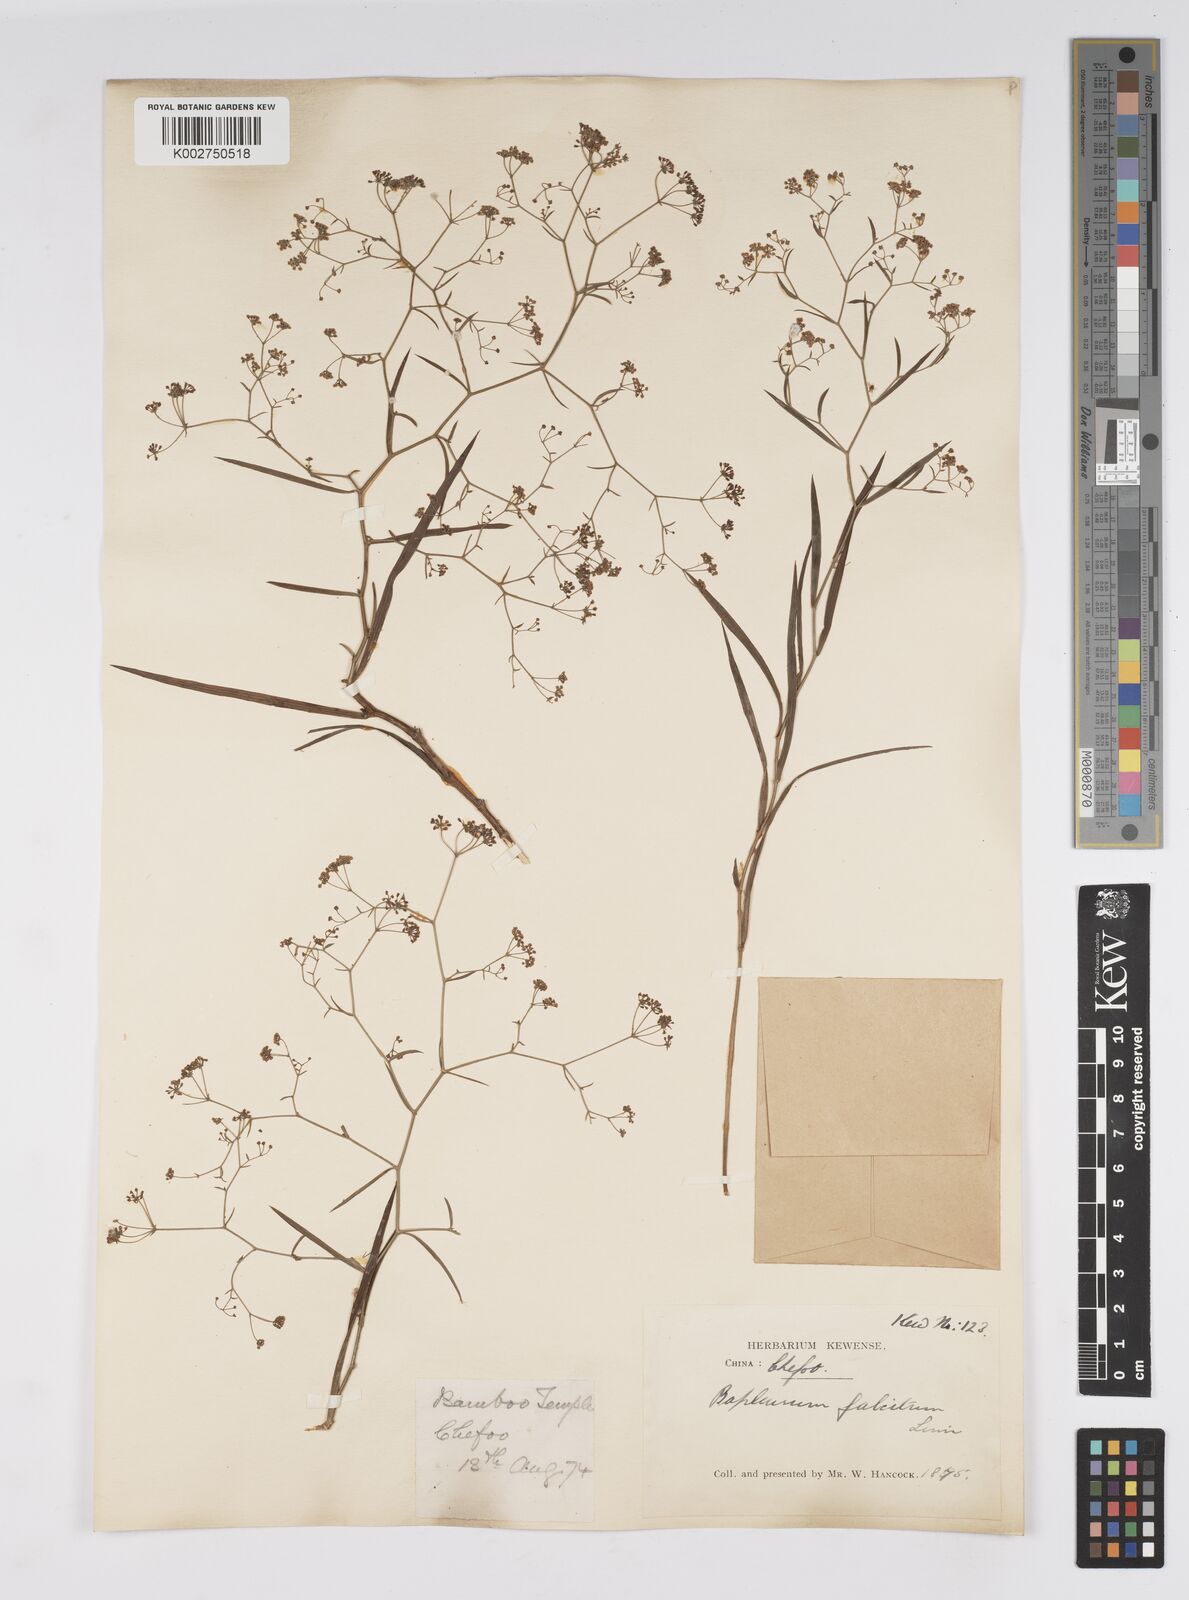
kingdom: Plantae
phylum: Tracheophyta
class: Magnoliopsida
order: Apiales
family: Apiaceae
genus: Bupleurum
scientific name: Bupleurum krylovianum
